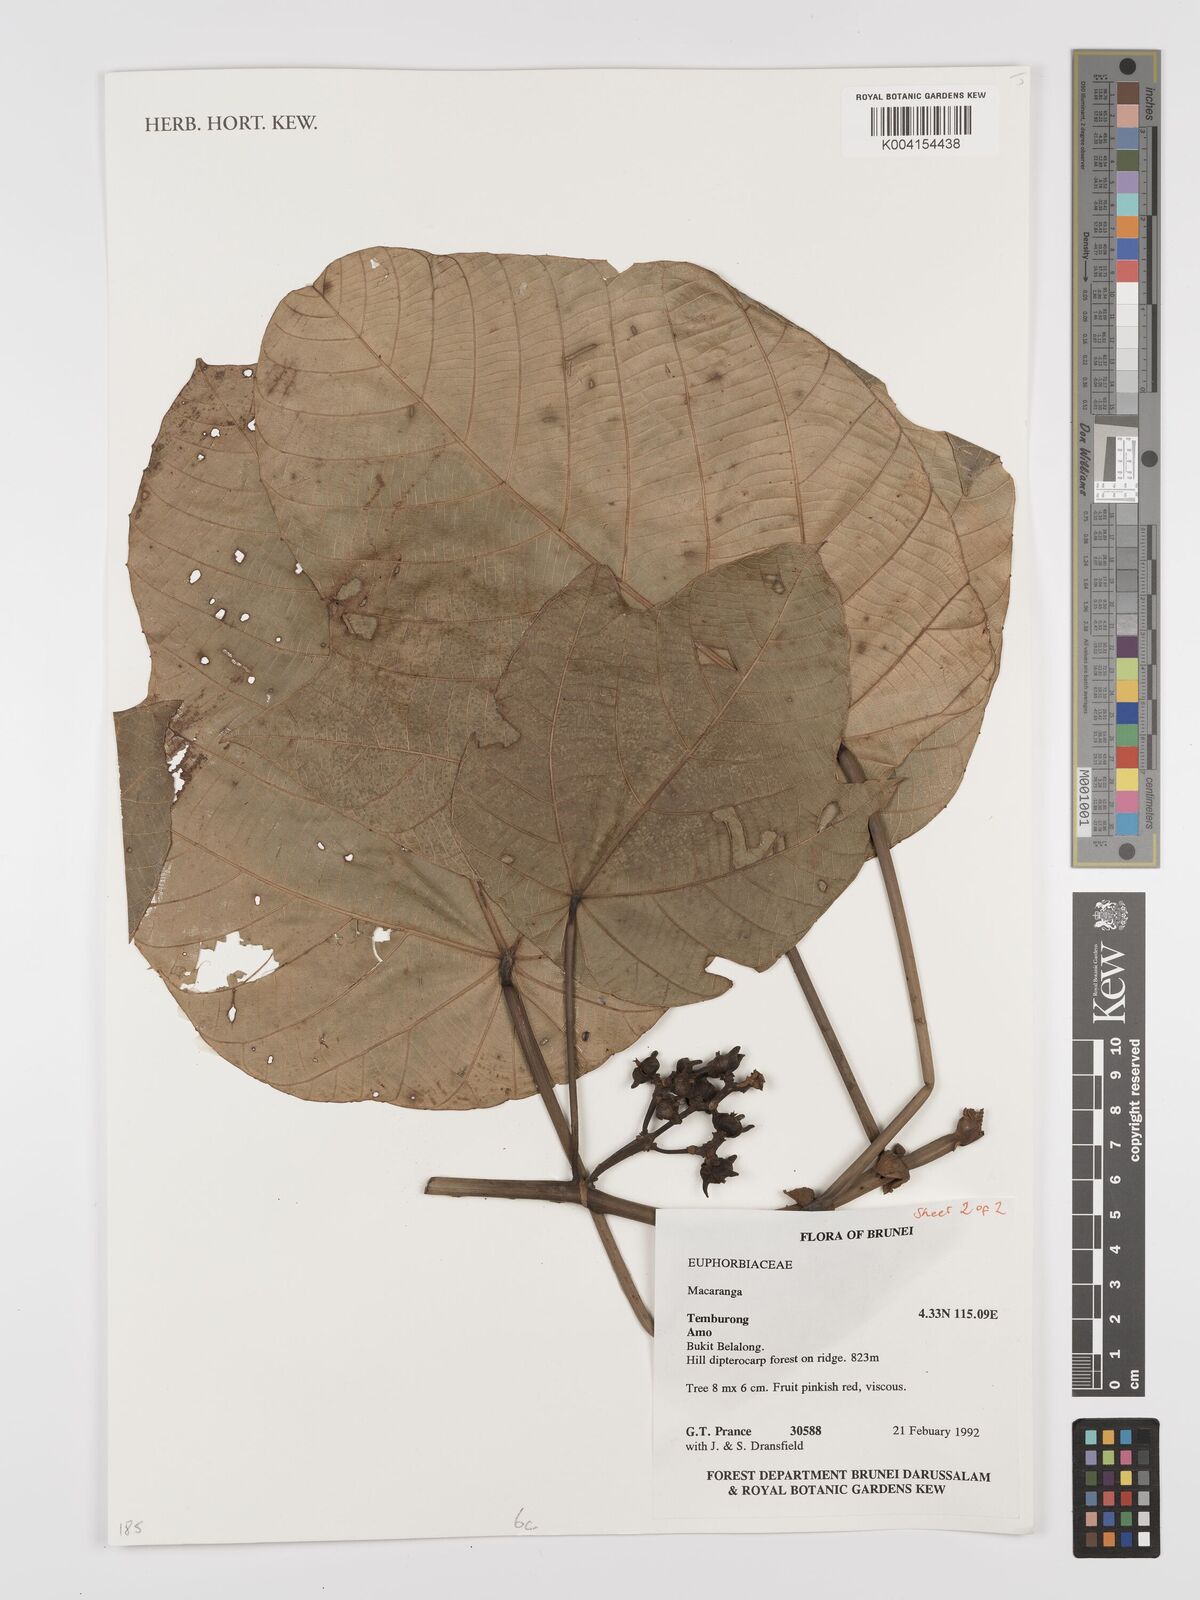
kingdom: Plantae
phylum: Tracheophyta
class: Magnoliopsida
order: Malpighiales
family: Euphorbiaceae
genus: Macaranga
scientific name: Macaranga
